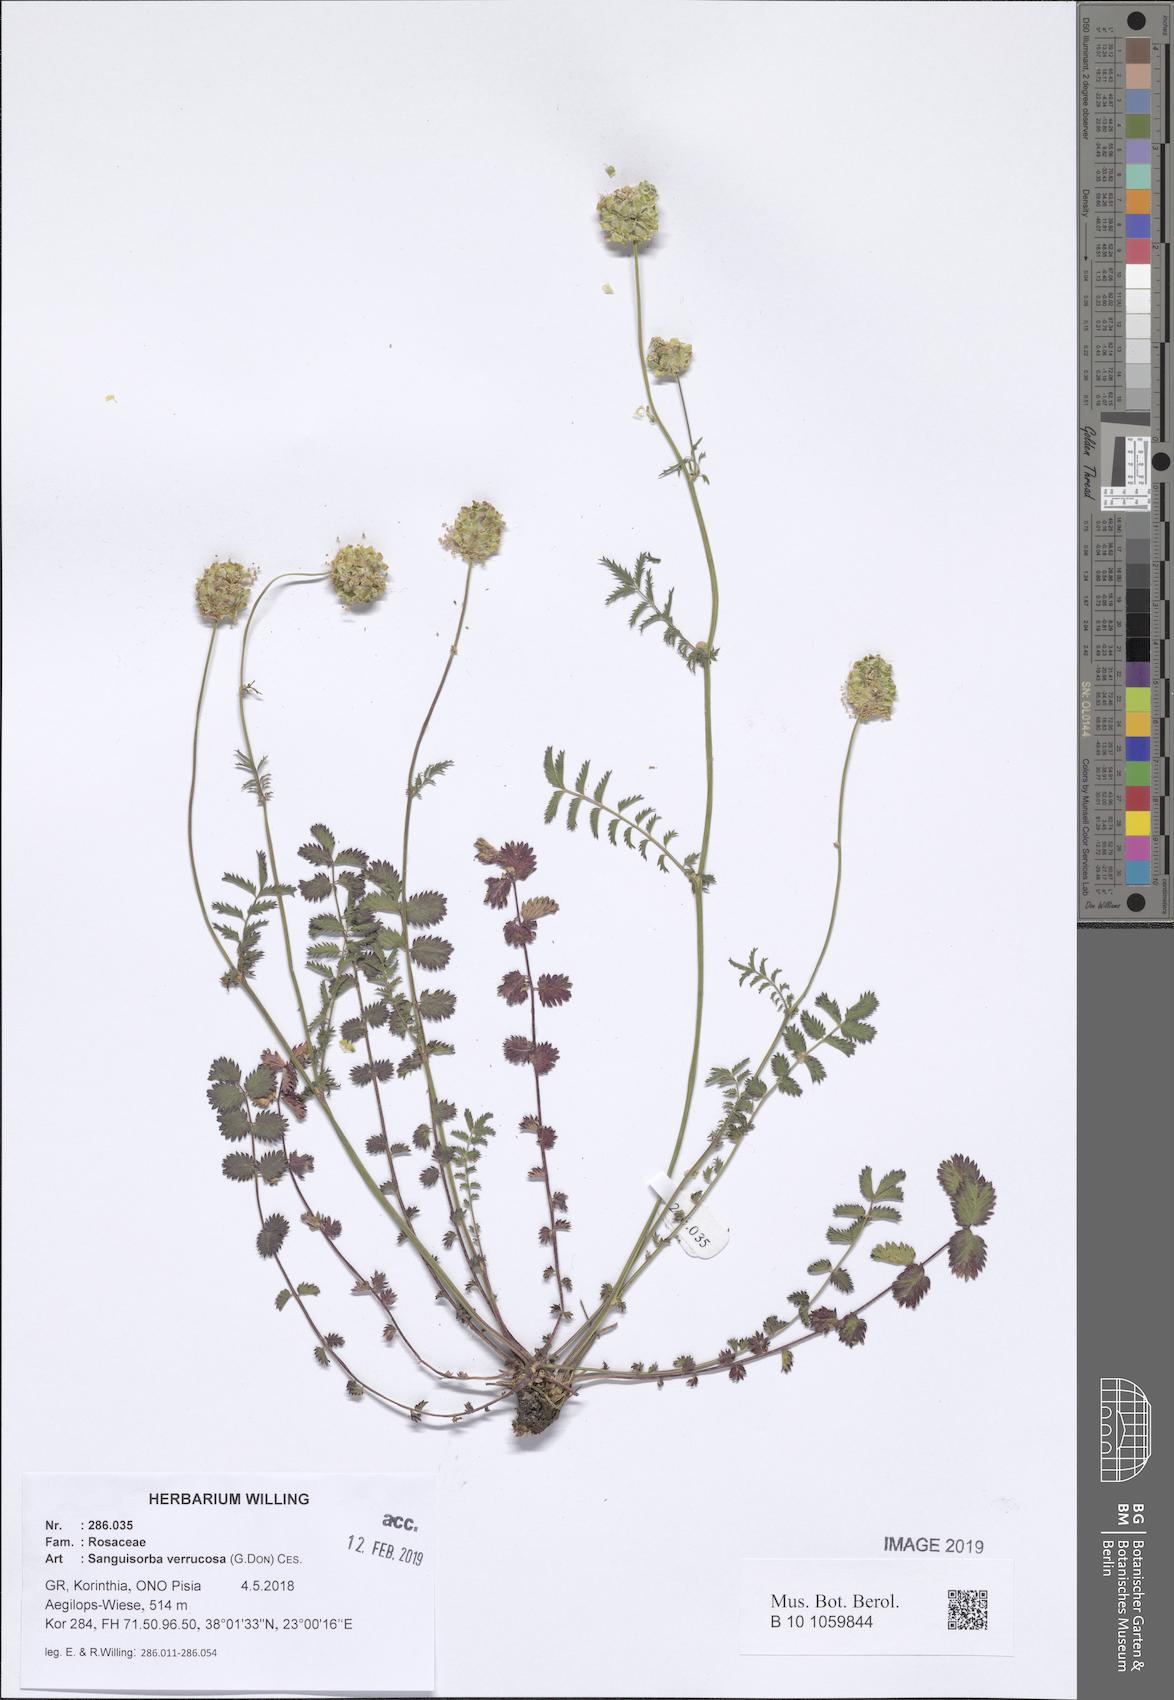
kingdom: Plantae
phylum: Tracheophyta
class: Magnoliopsida
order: Rosales
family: Rosaceae
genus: Poterium
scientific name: Poterium verrucosum
